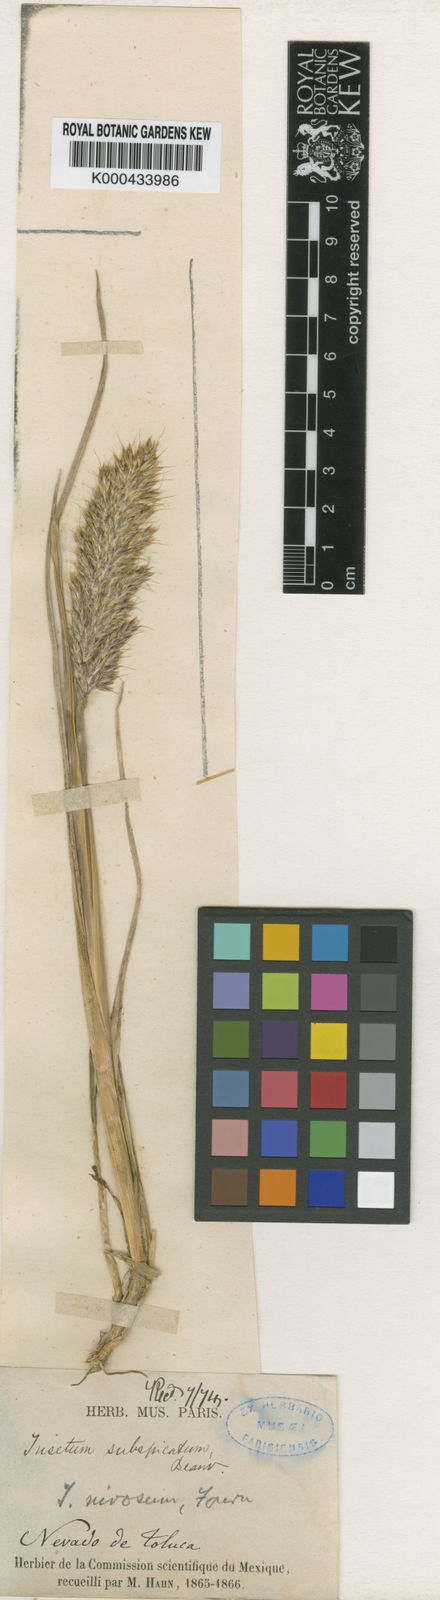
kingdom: Plantae
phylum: Tracheophyta
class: Liliopsida
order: Poales
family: Poaceae
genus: Koeleria
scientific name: Koeleria spicata
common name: Mountain trisetum
